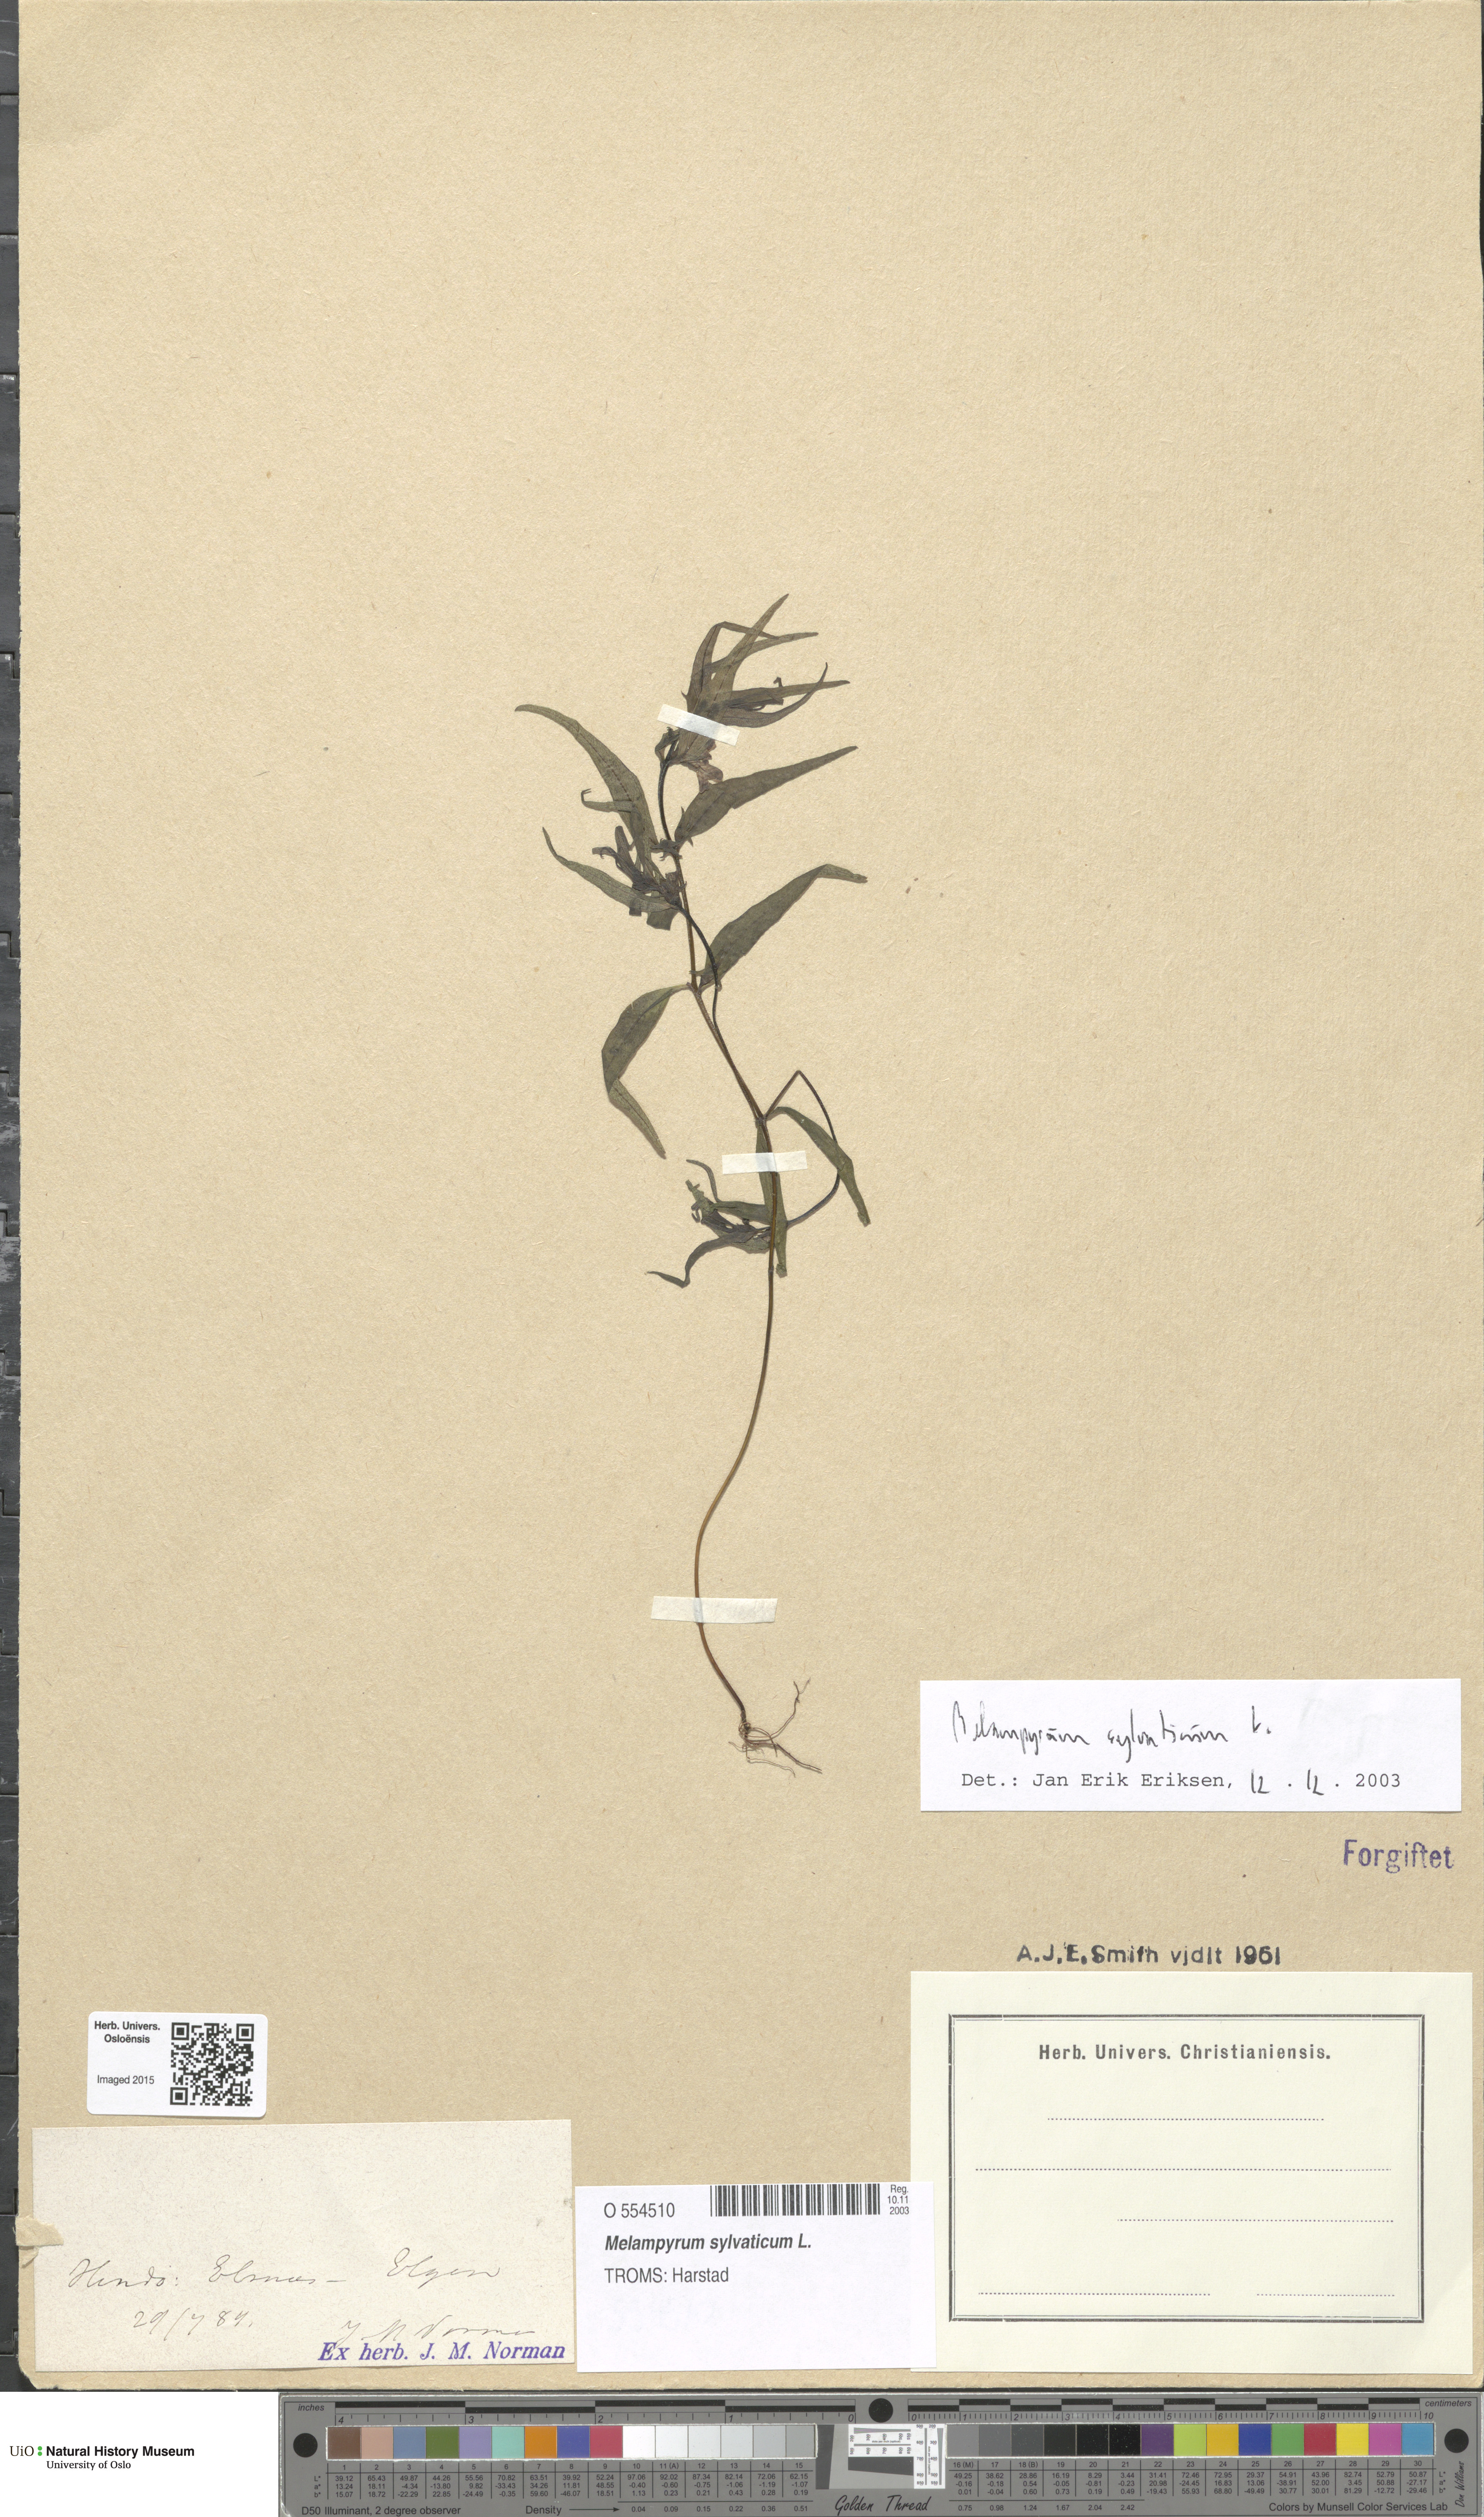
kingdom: Plantae
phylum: Tracheophyta
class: Magnoliopsida
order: Lamiales
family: Orobanchaceae
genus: Melampyrum
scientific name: Melampyrum sylvaticum
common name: Small cow-wheat
